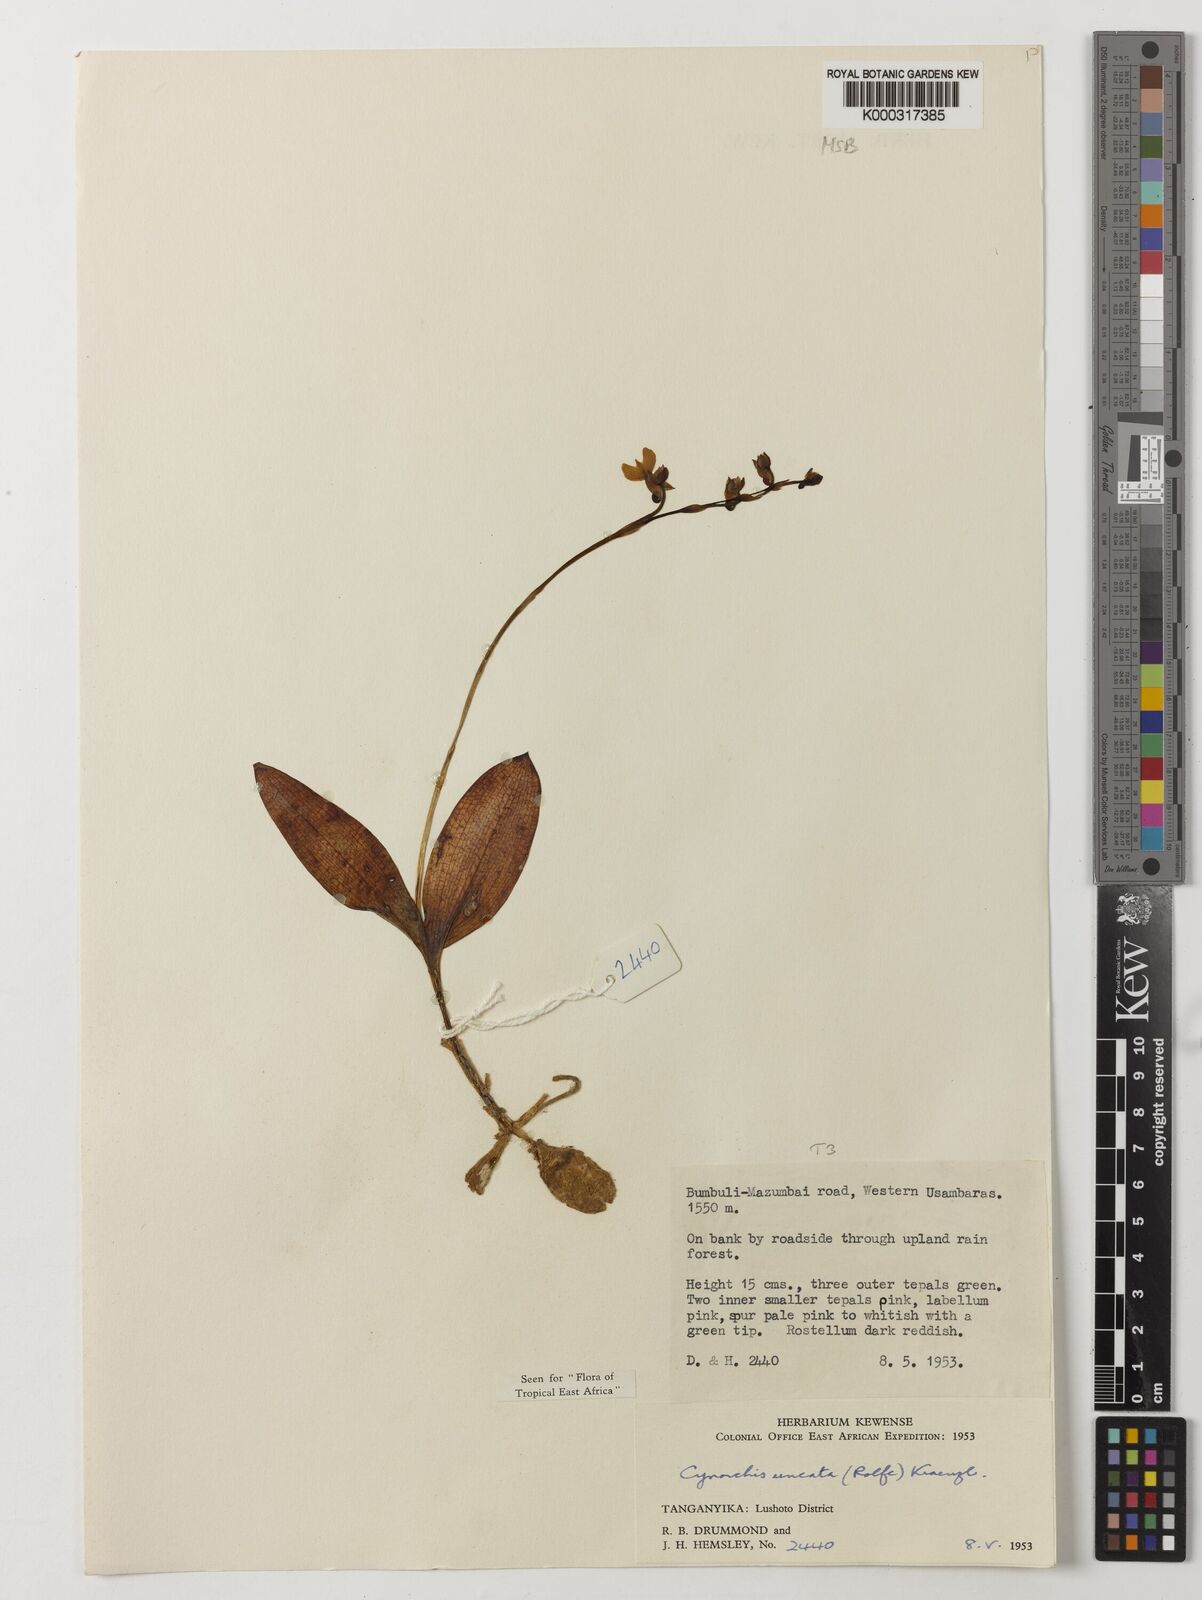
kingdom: Plantae
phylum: Tracheophyta
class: Liliopsida
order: Asparagales
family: Orchidaceae
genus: Cynorkis
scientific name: Cynorkis uncata
